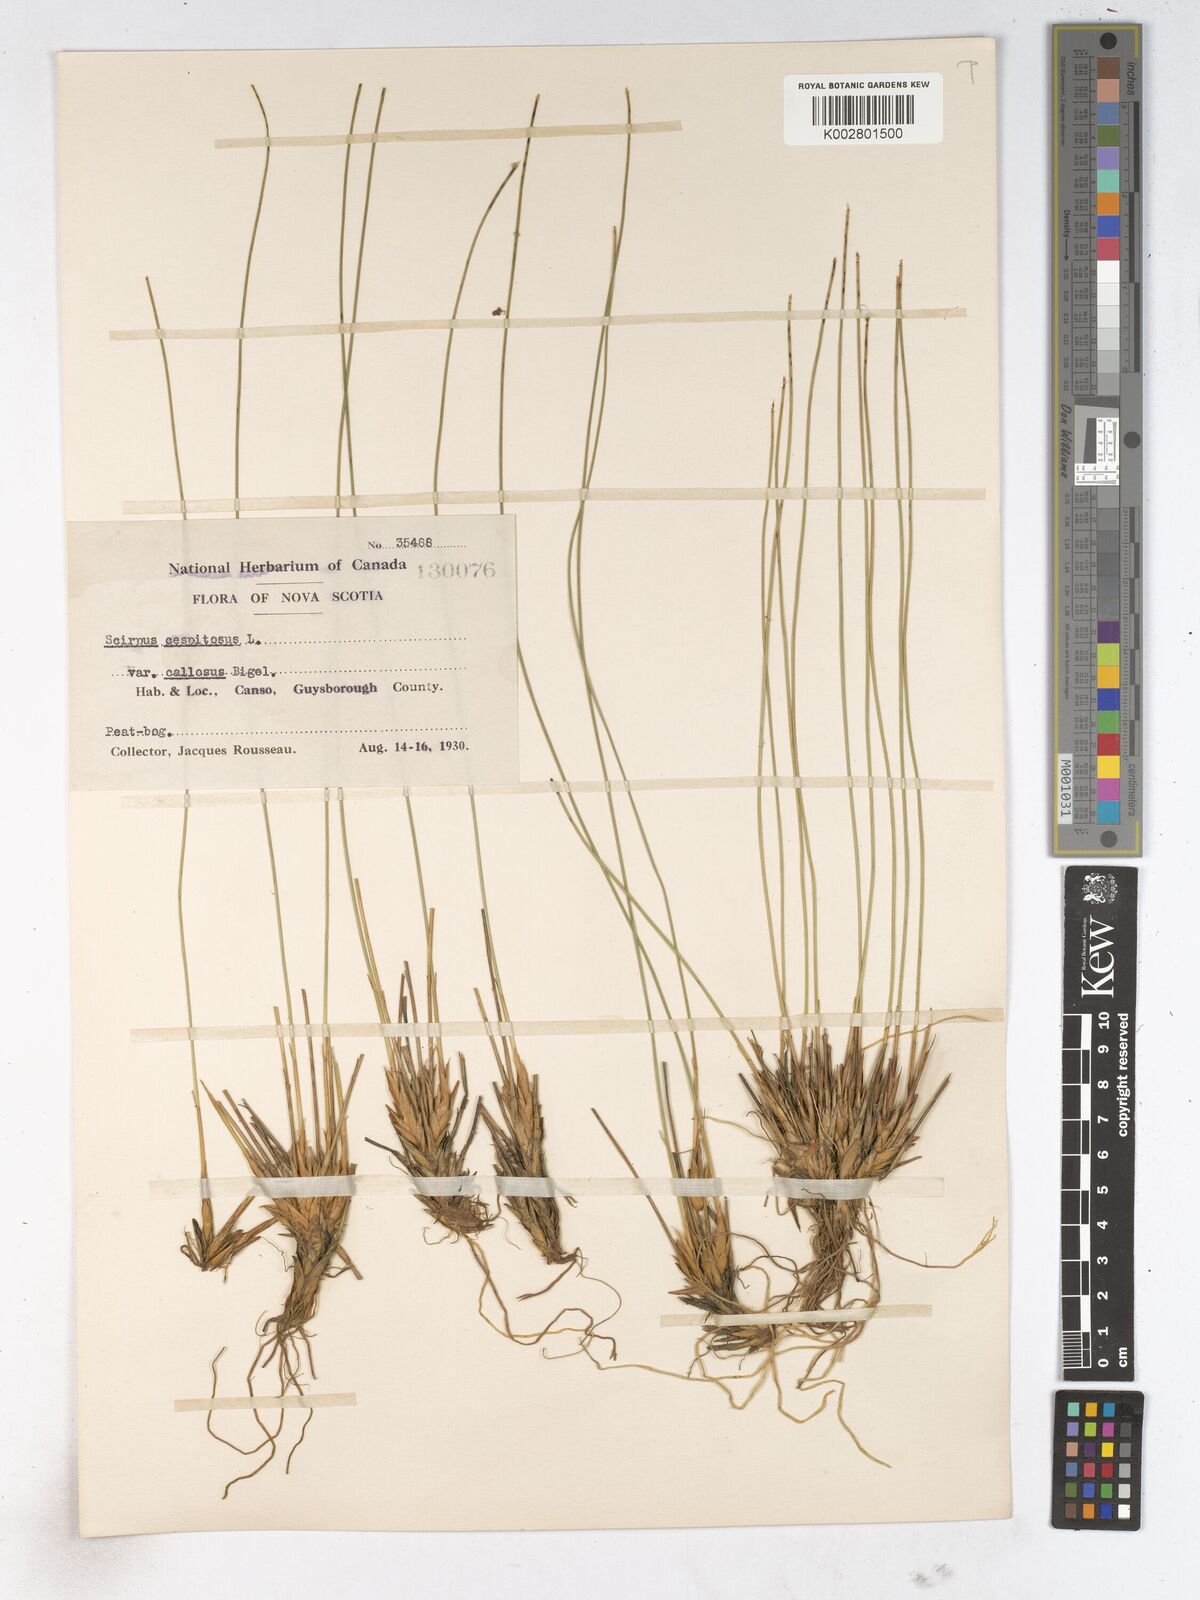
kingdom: Plantae
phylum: Tracheophyta
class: Liliopsida
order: Poales
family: Cyperaceae
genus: Trichophorum
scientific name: Trichophorum cespitosum
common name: Cespitose bulrush
